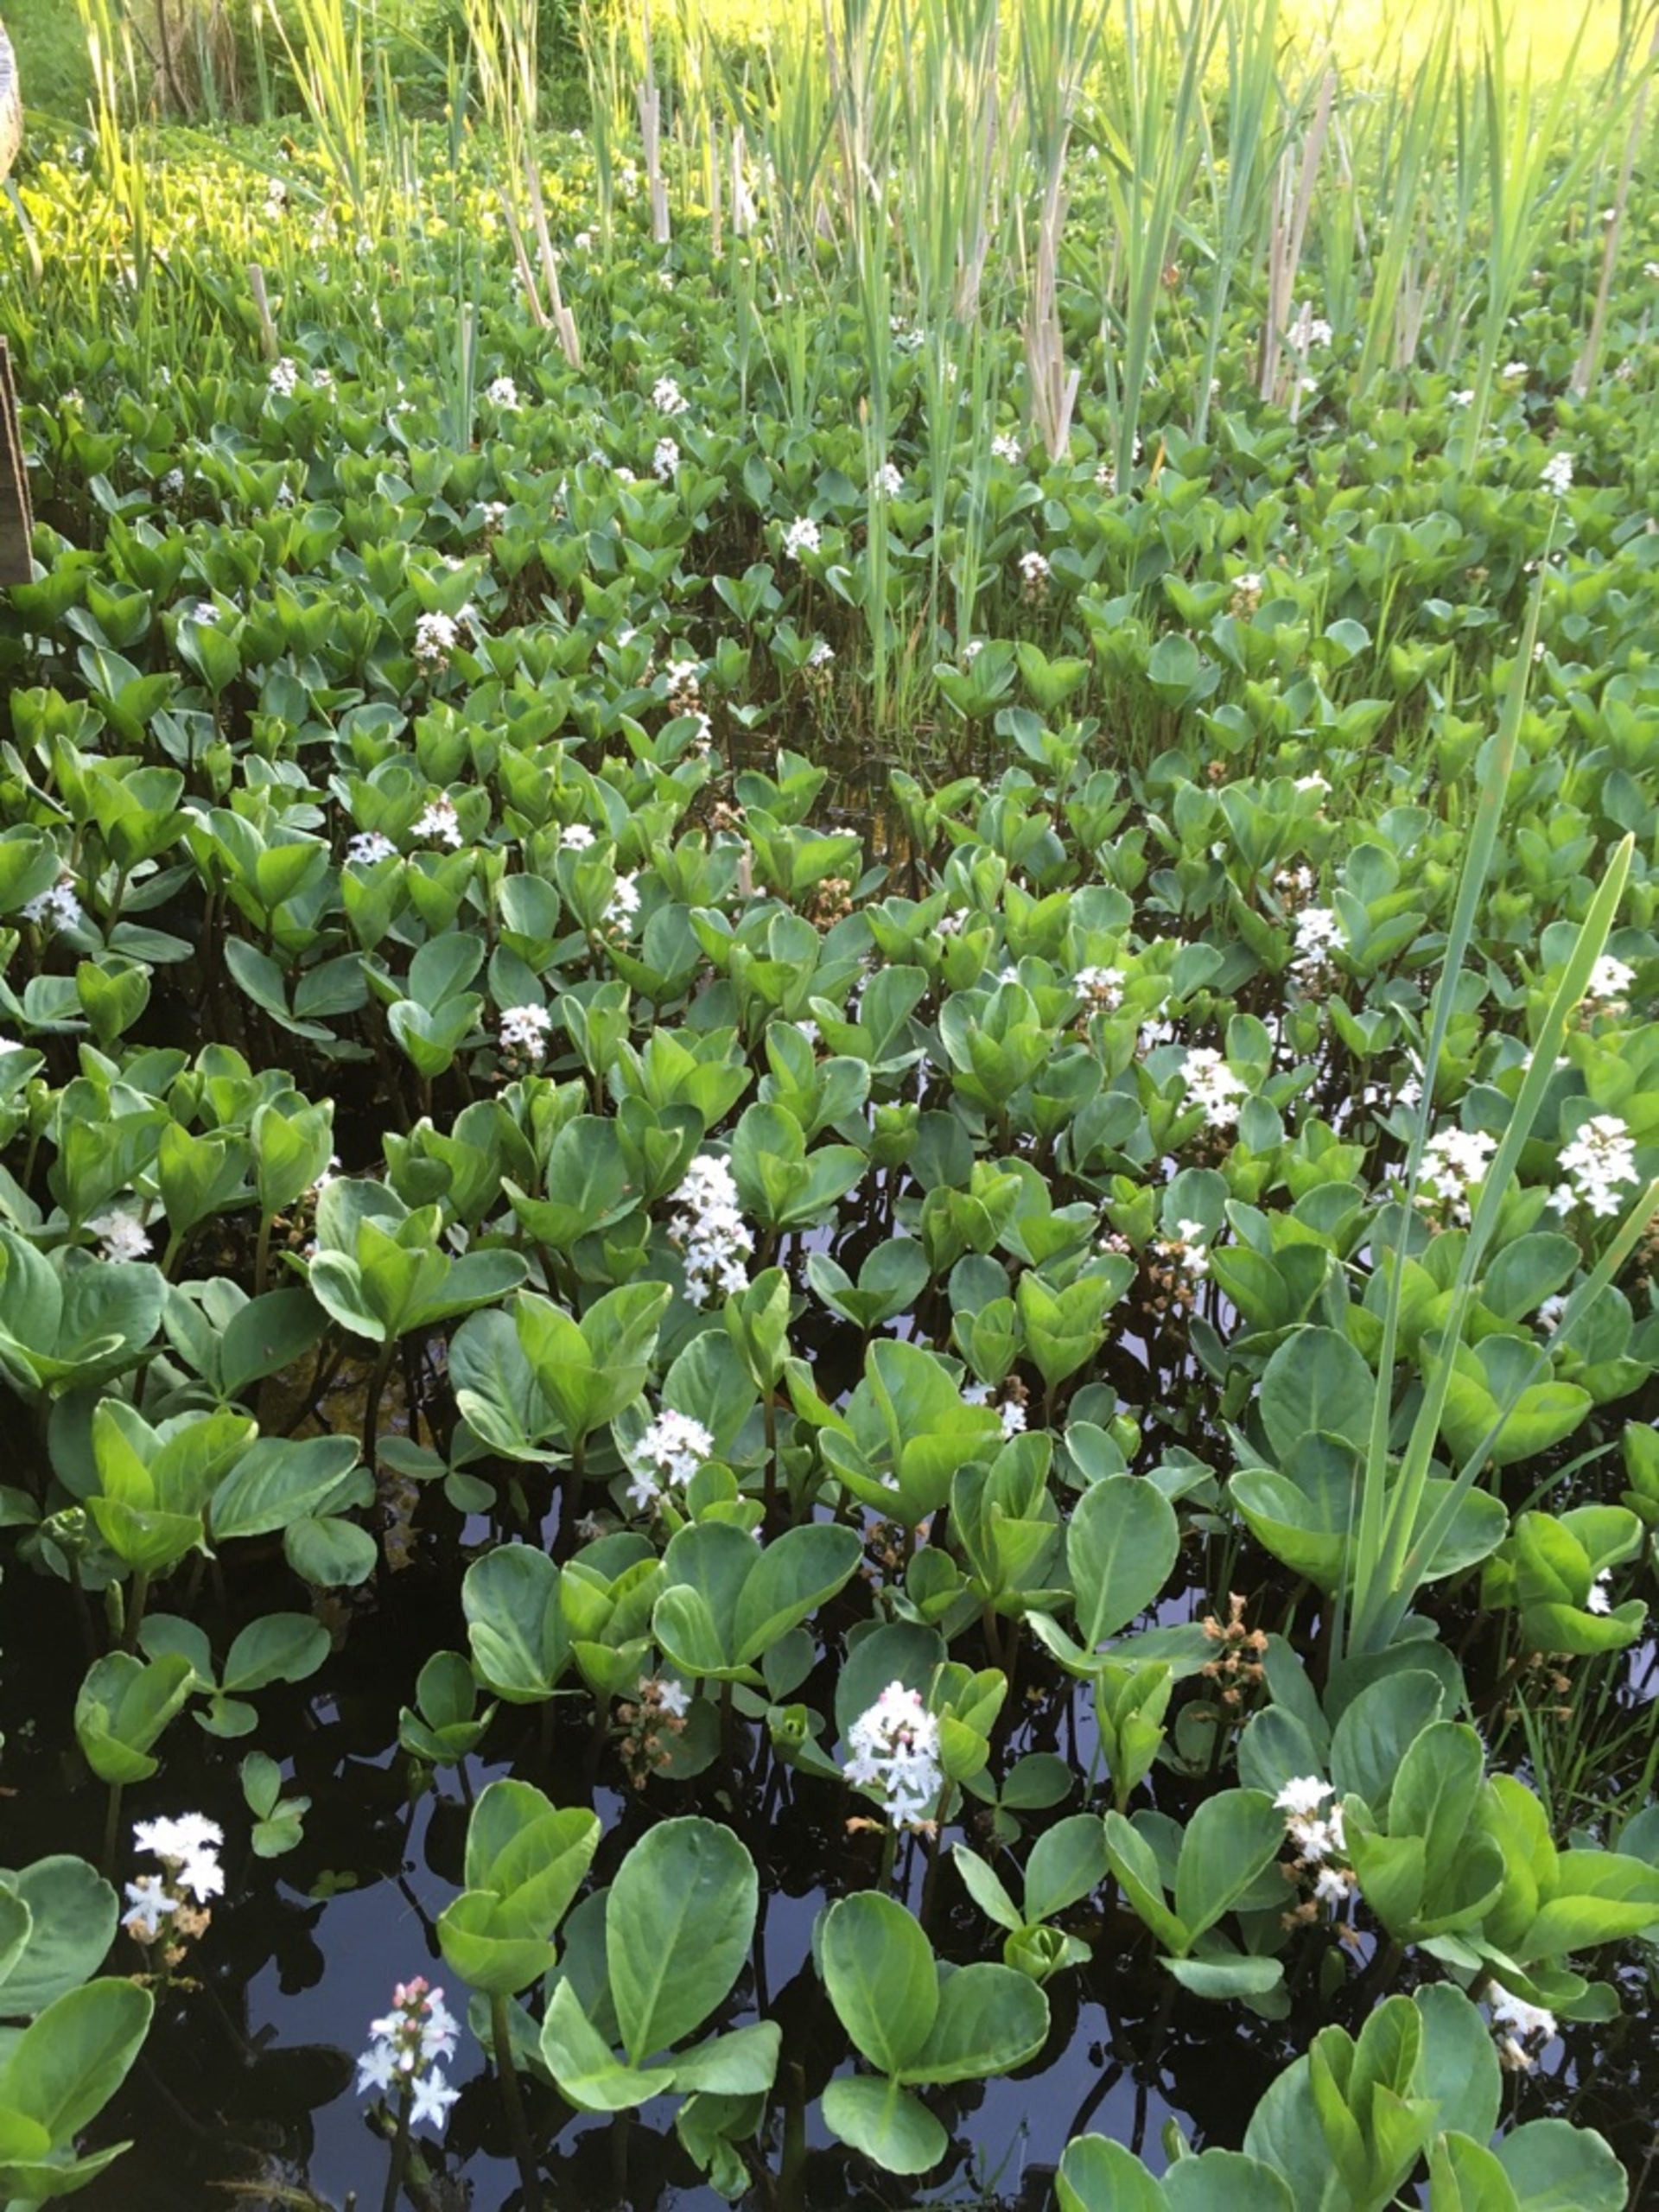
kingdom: Plantae
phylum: Tracheophyta
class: Magnoliopsida
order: Asterales
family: Menyanthaceae
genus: Menyanthes
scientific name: Menyanthes trifoliata
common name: Bukkeblad
